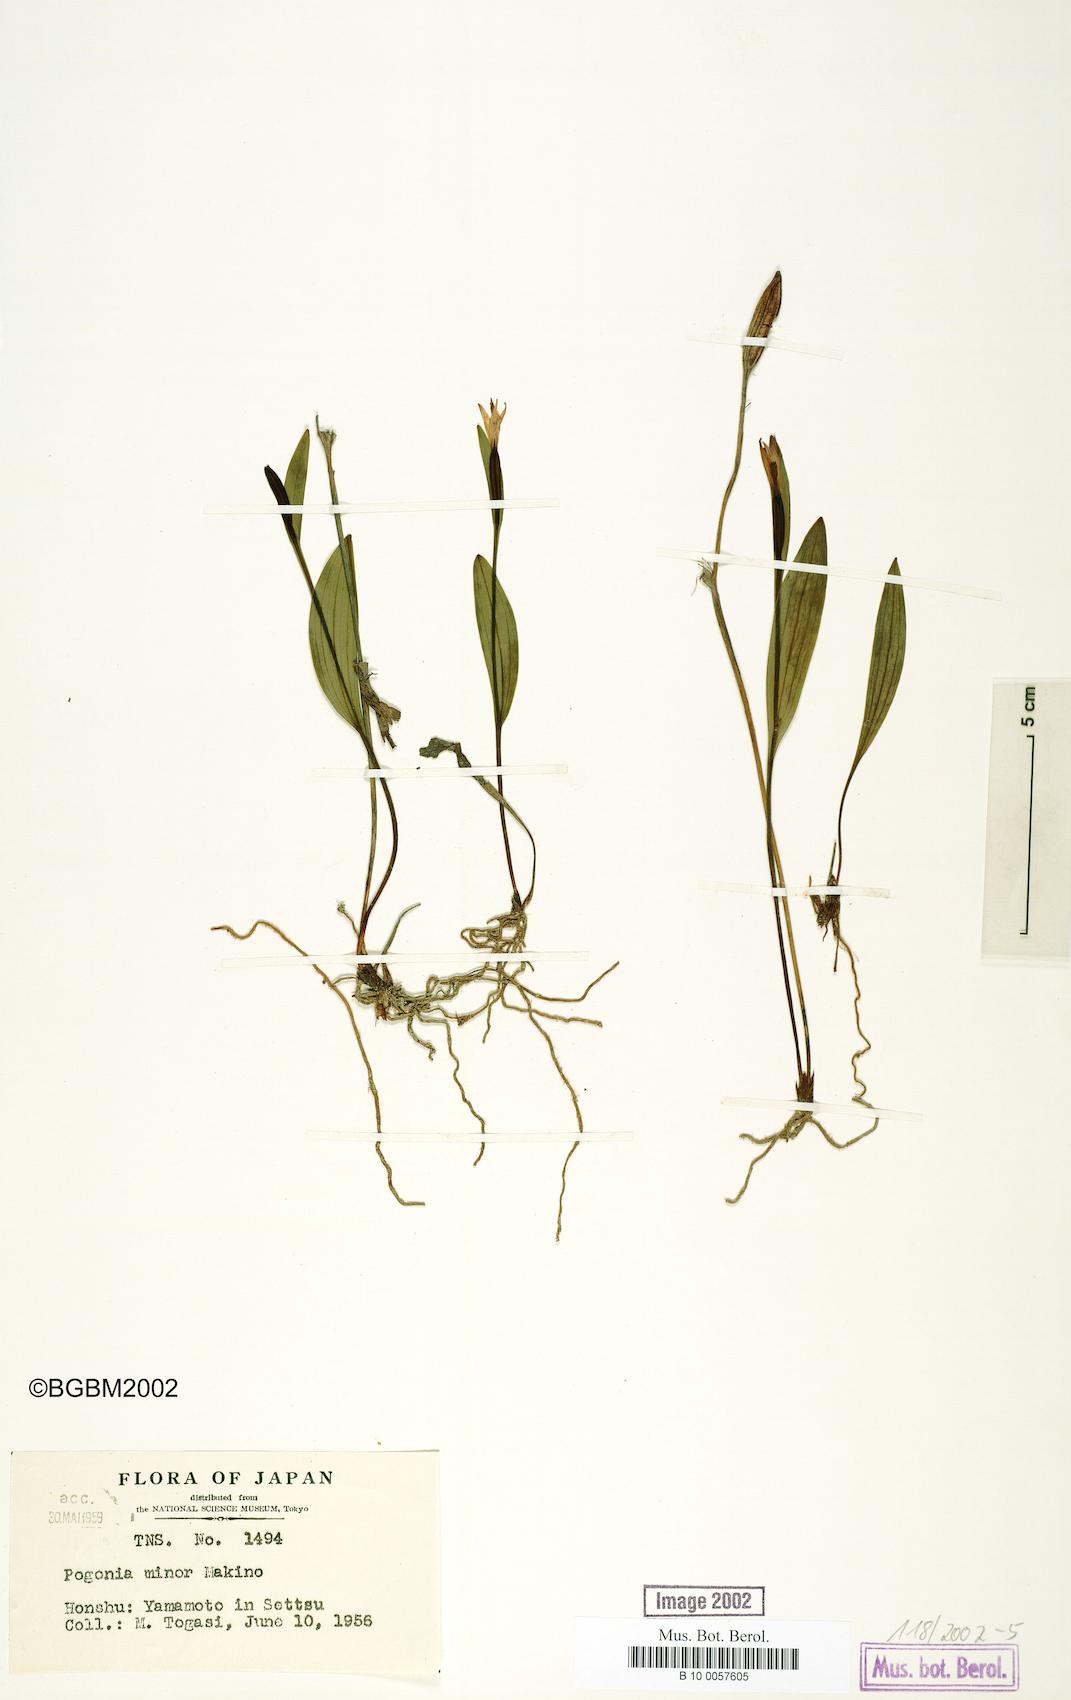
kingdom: Plantae
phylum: Tracheophyta
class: Liliopsida
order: Asparagales
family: Orchidaceae
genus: Pogonia
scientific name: Pogonia minor
